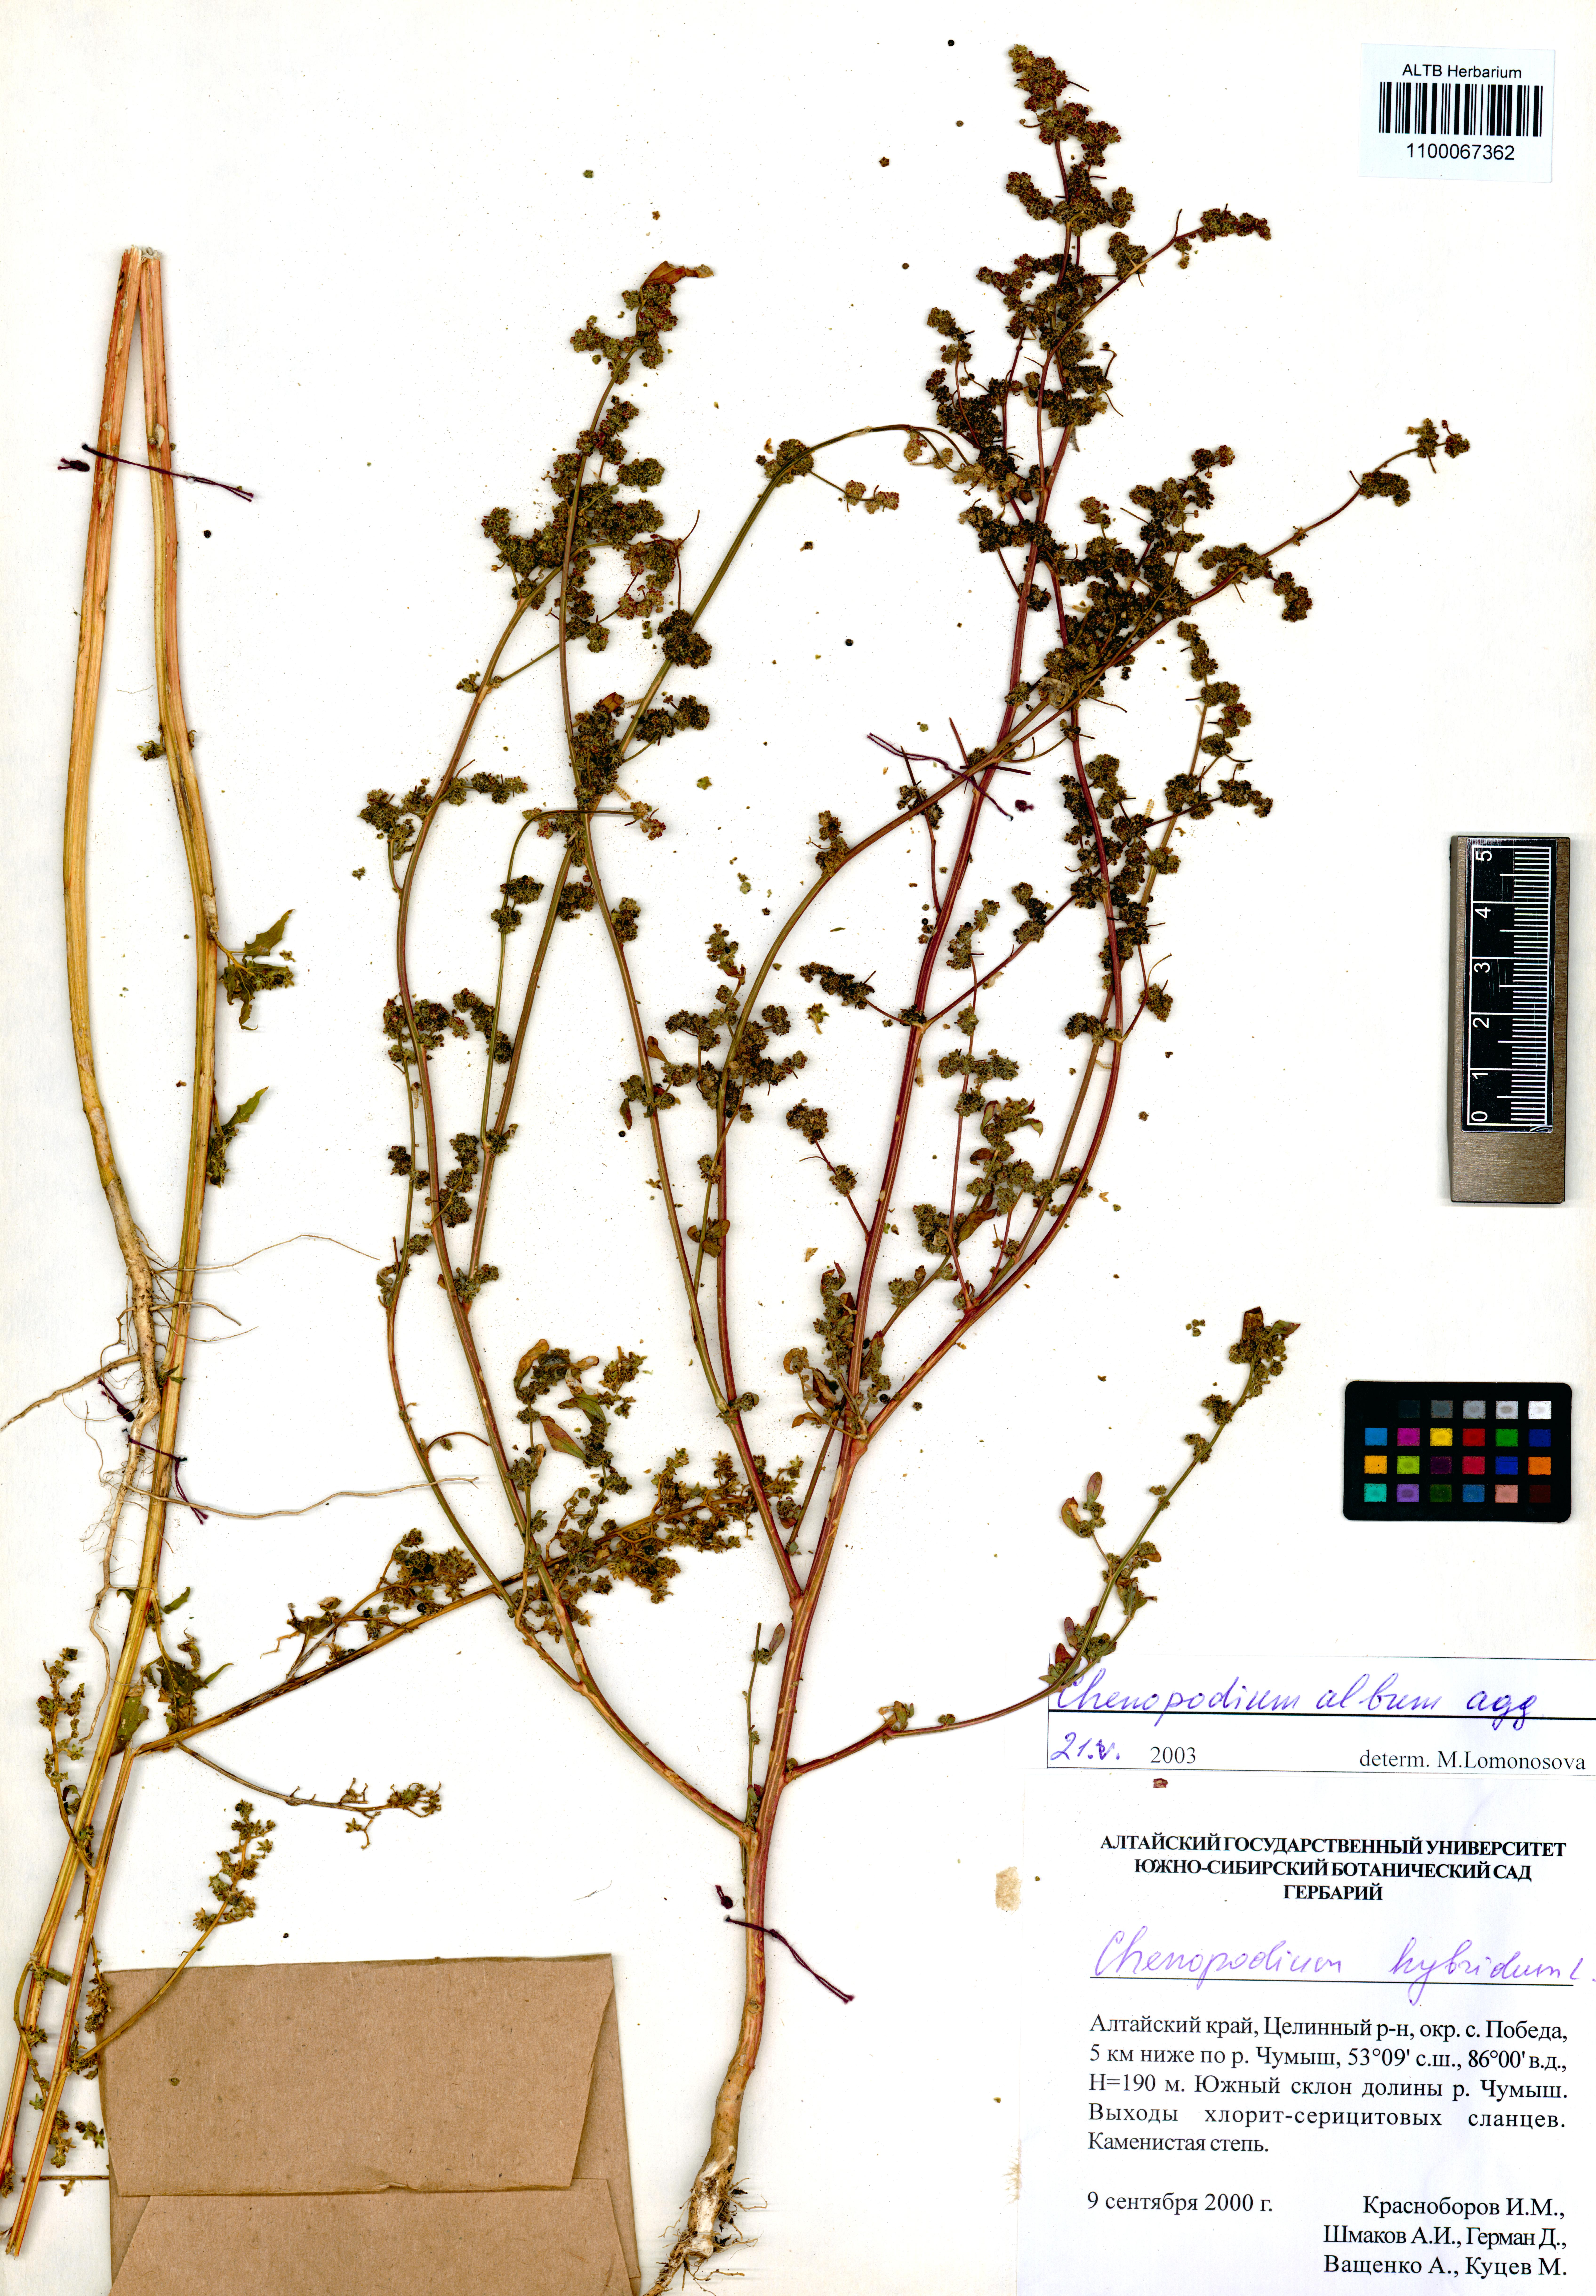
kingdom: Plantae
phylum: Tracheophyta
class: Magnoliopsida
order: Caryophyllales
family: Amaranthaceae
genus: Chenopodium
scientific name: Chenopodium album
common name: Fat-hen
